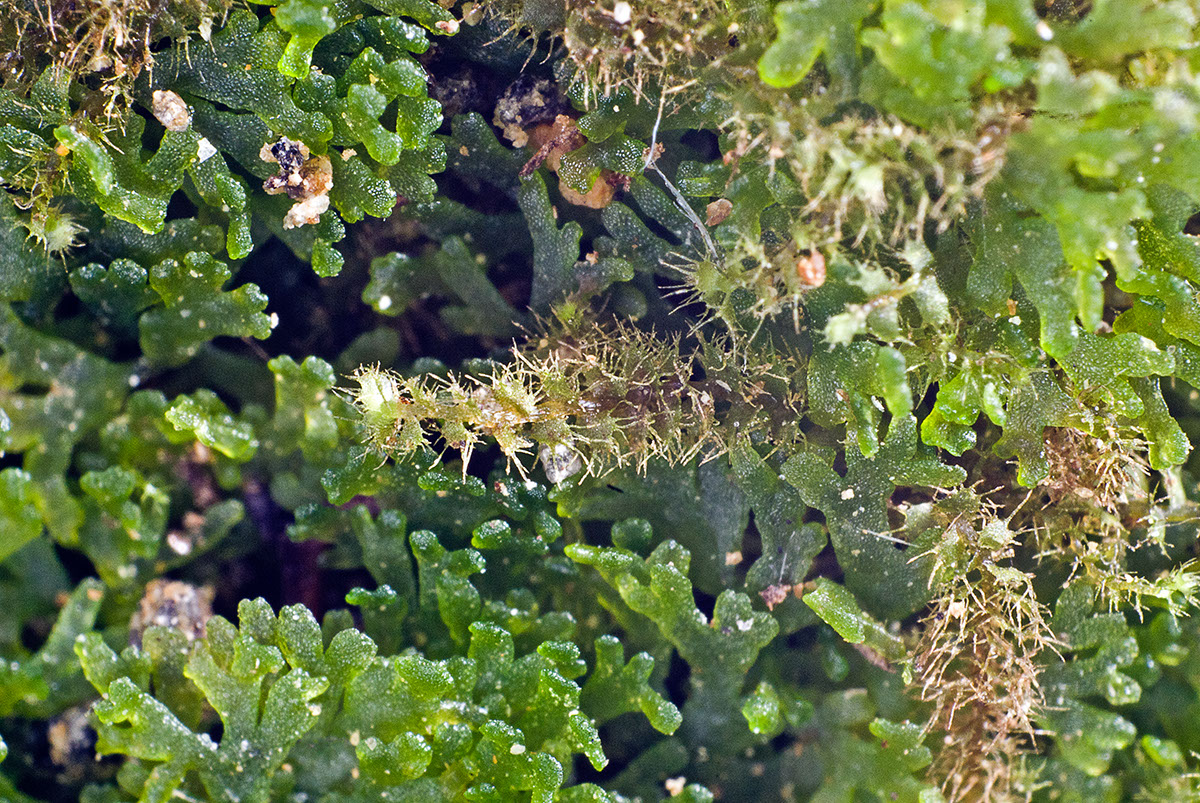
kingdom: Plantae
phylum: Marchantiophyta
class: Jungermanniopsida
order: Jungermanniales
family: Pseudolepicoleaceae
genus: Temnoma
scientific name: Temnoma pulchellum
